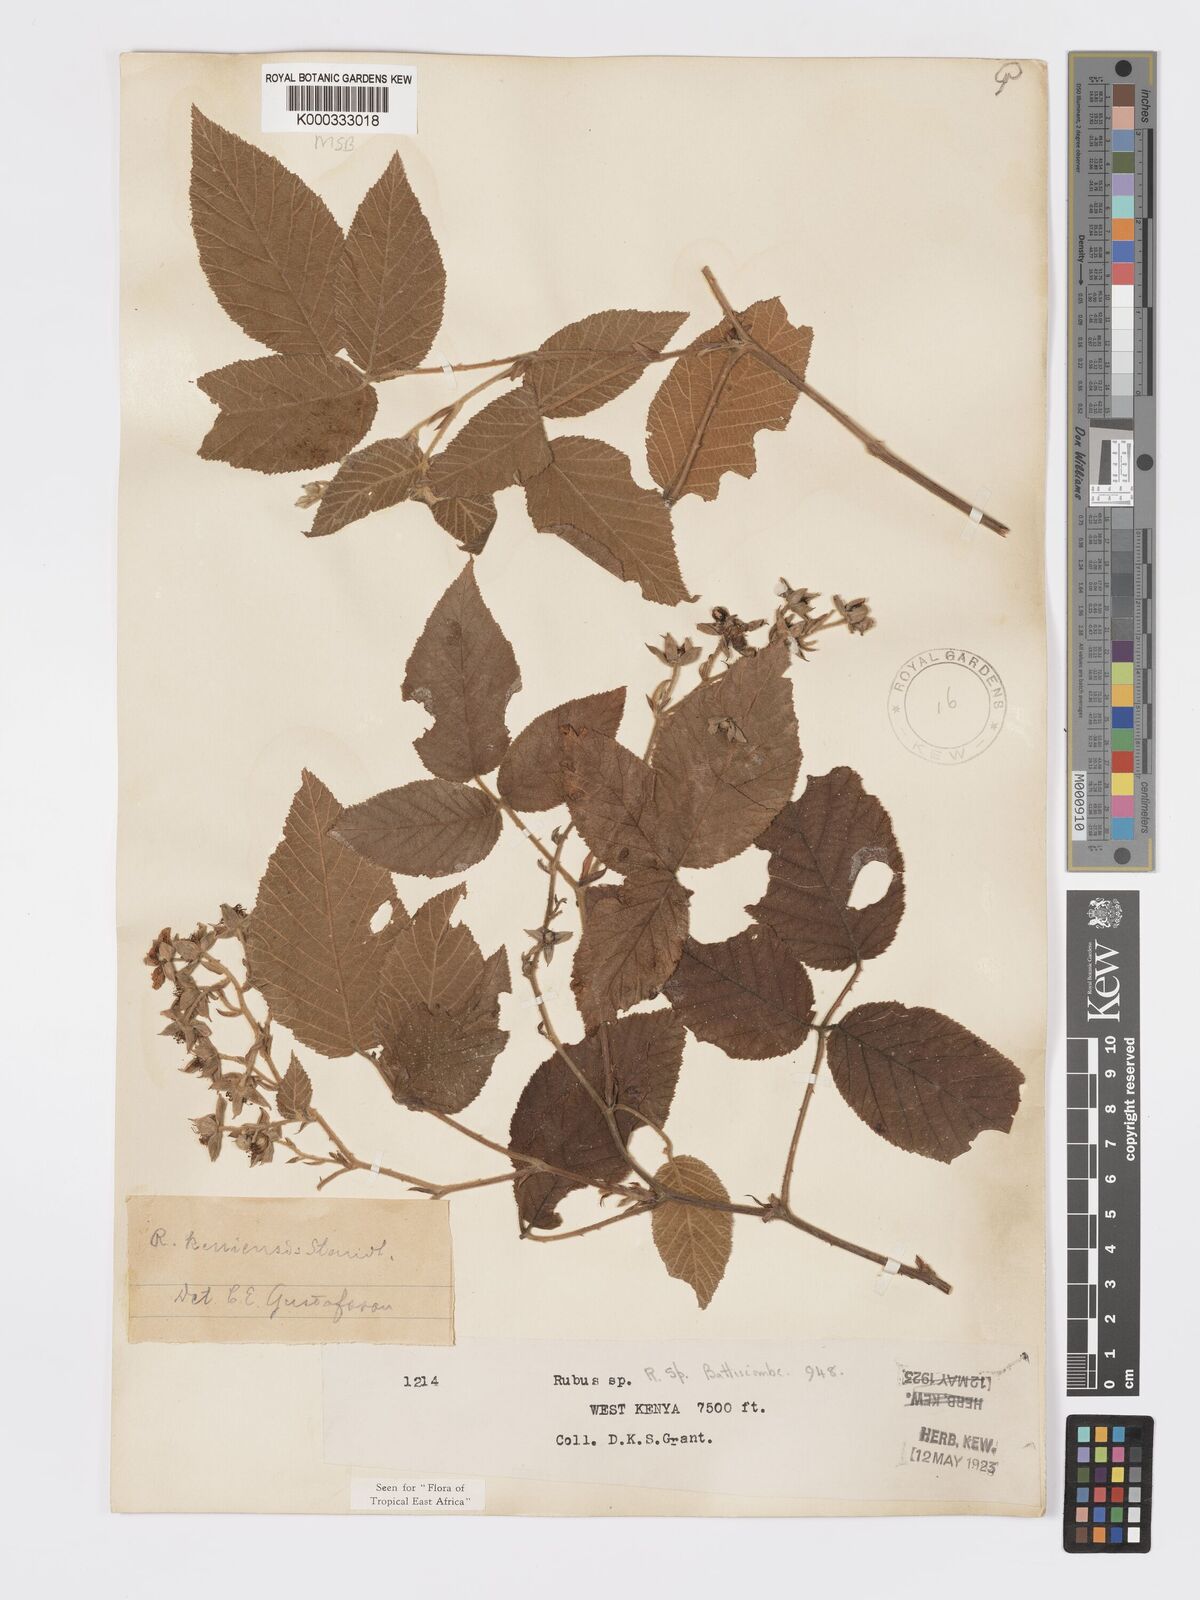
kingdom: Plantae
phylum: Tracheophyta
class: Magnoliopsida
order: Rosales
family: Rosaceae
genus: Rubus
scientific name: Rubus keniensis
